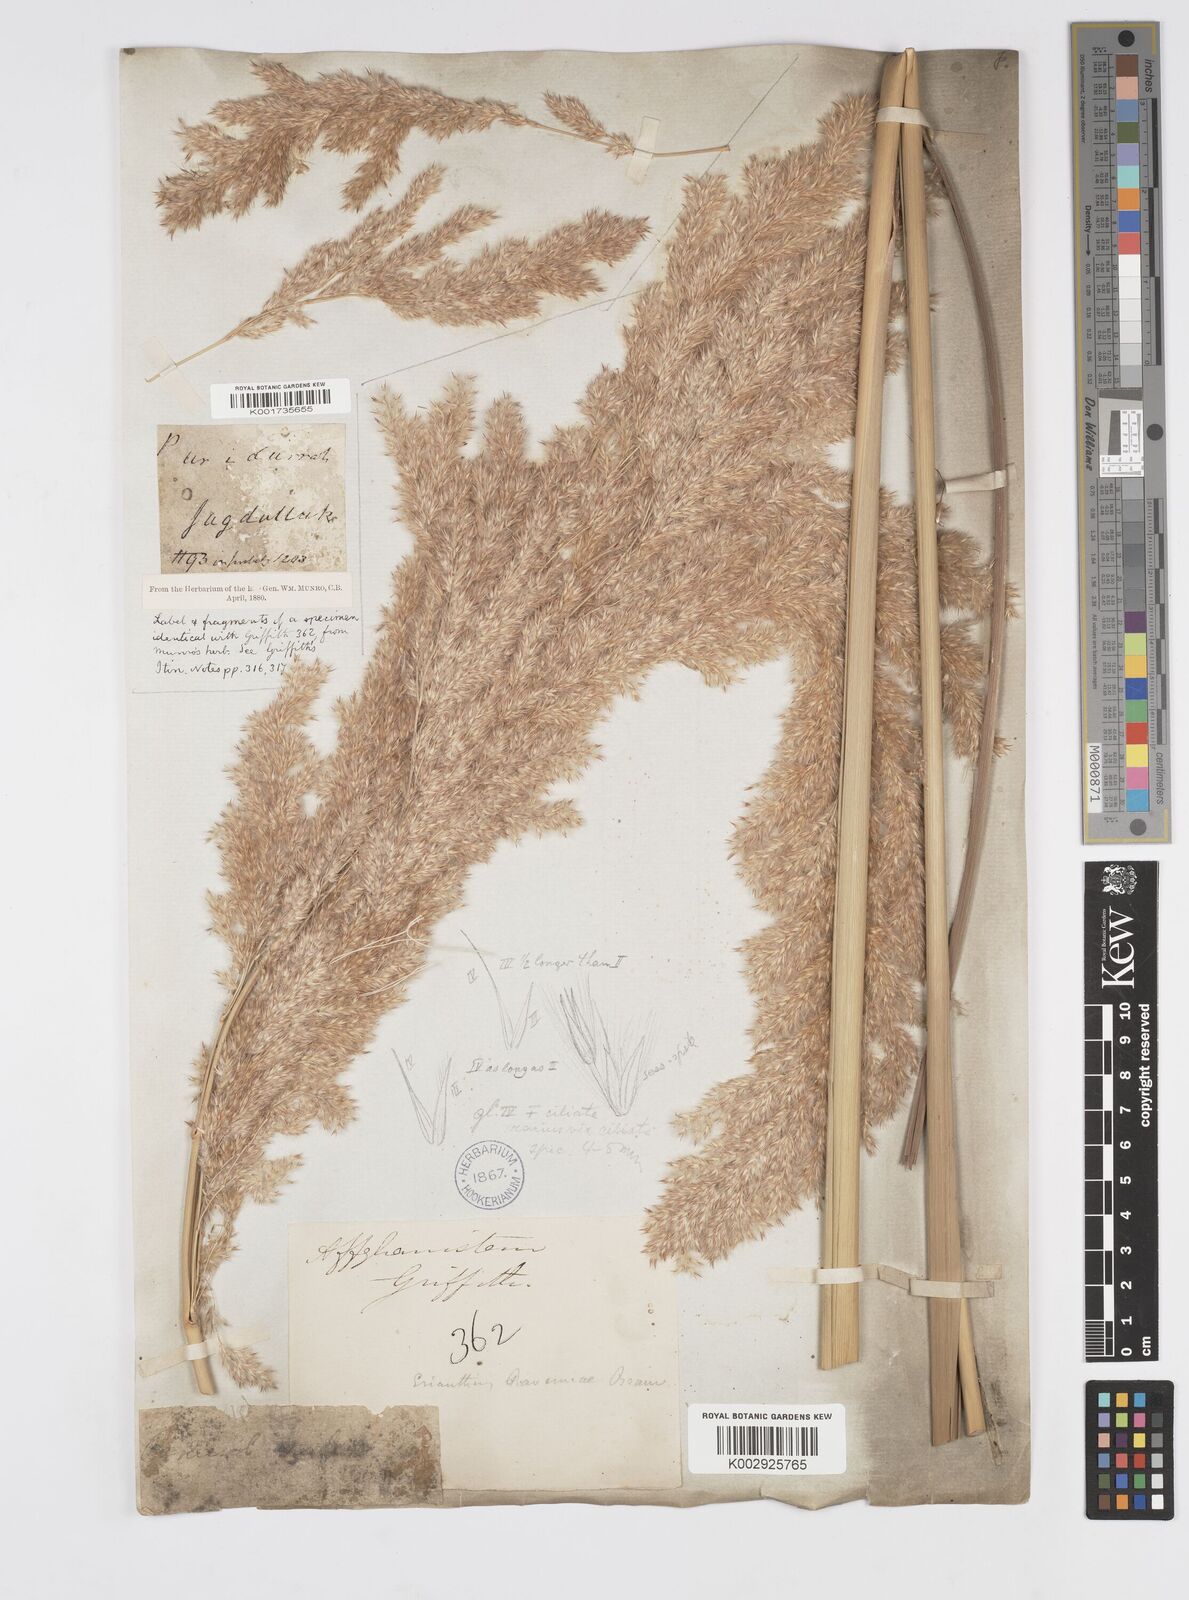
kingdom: Plantae
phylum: Tracheophyta
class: Liliopsida
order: Poales
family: Poaceae
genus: Tripidium
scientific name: Tripidium ravennae
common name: Ravenna grass
